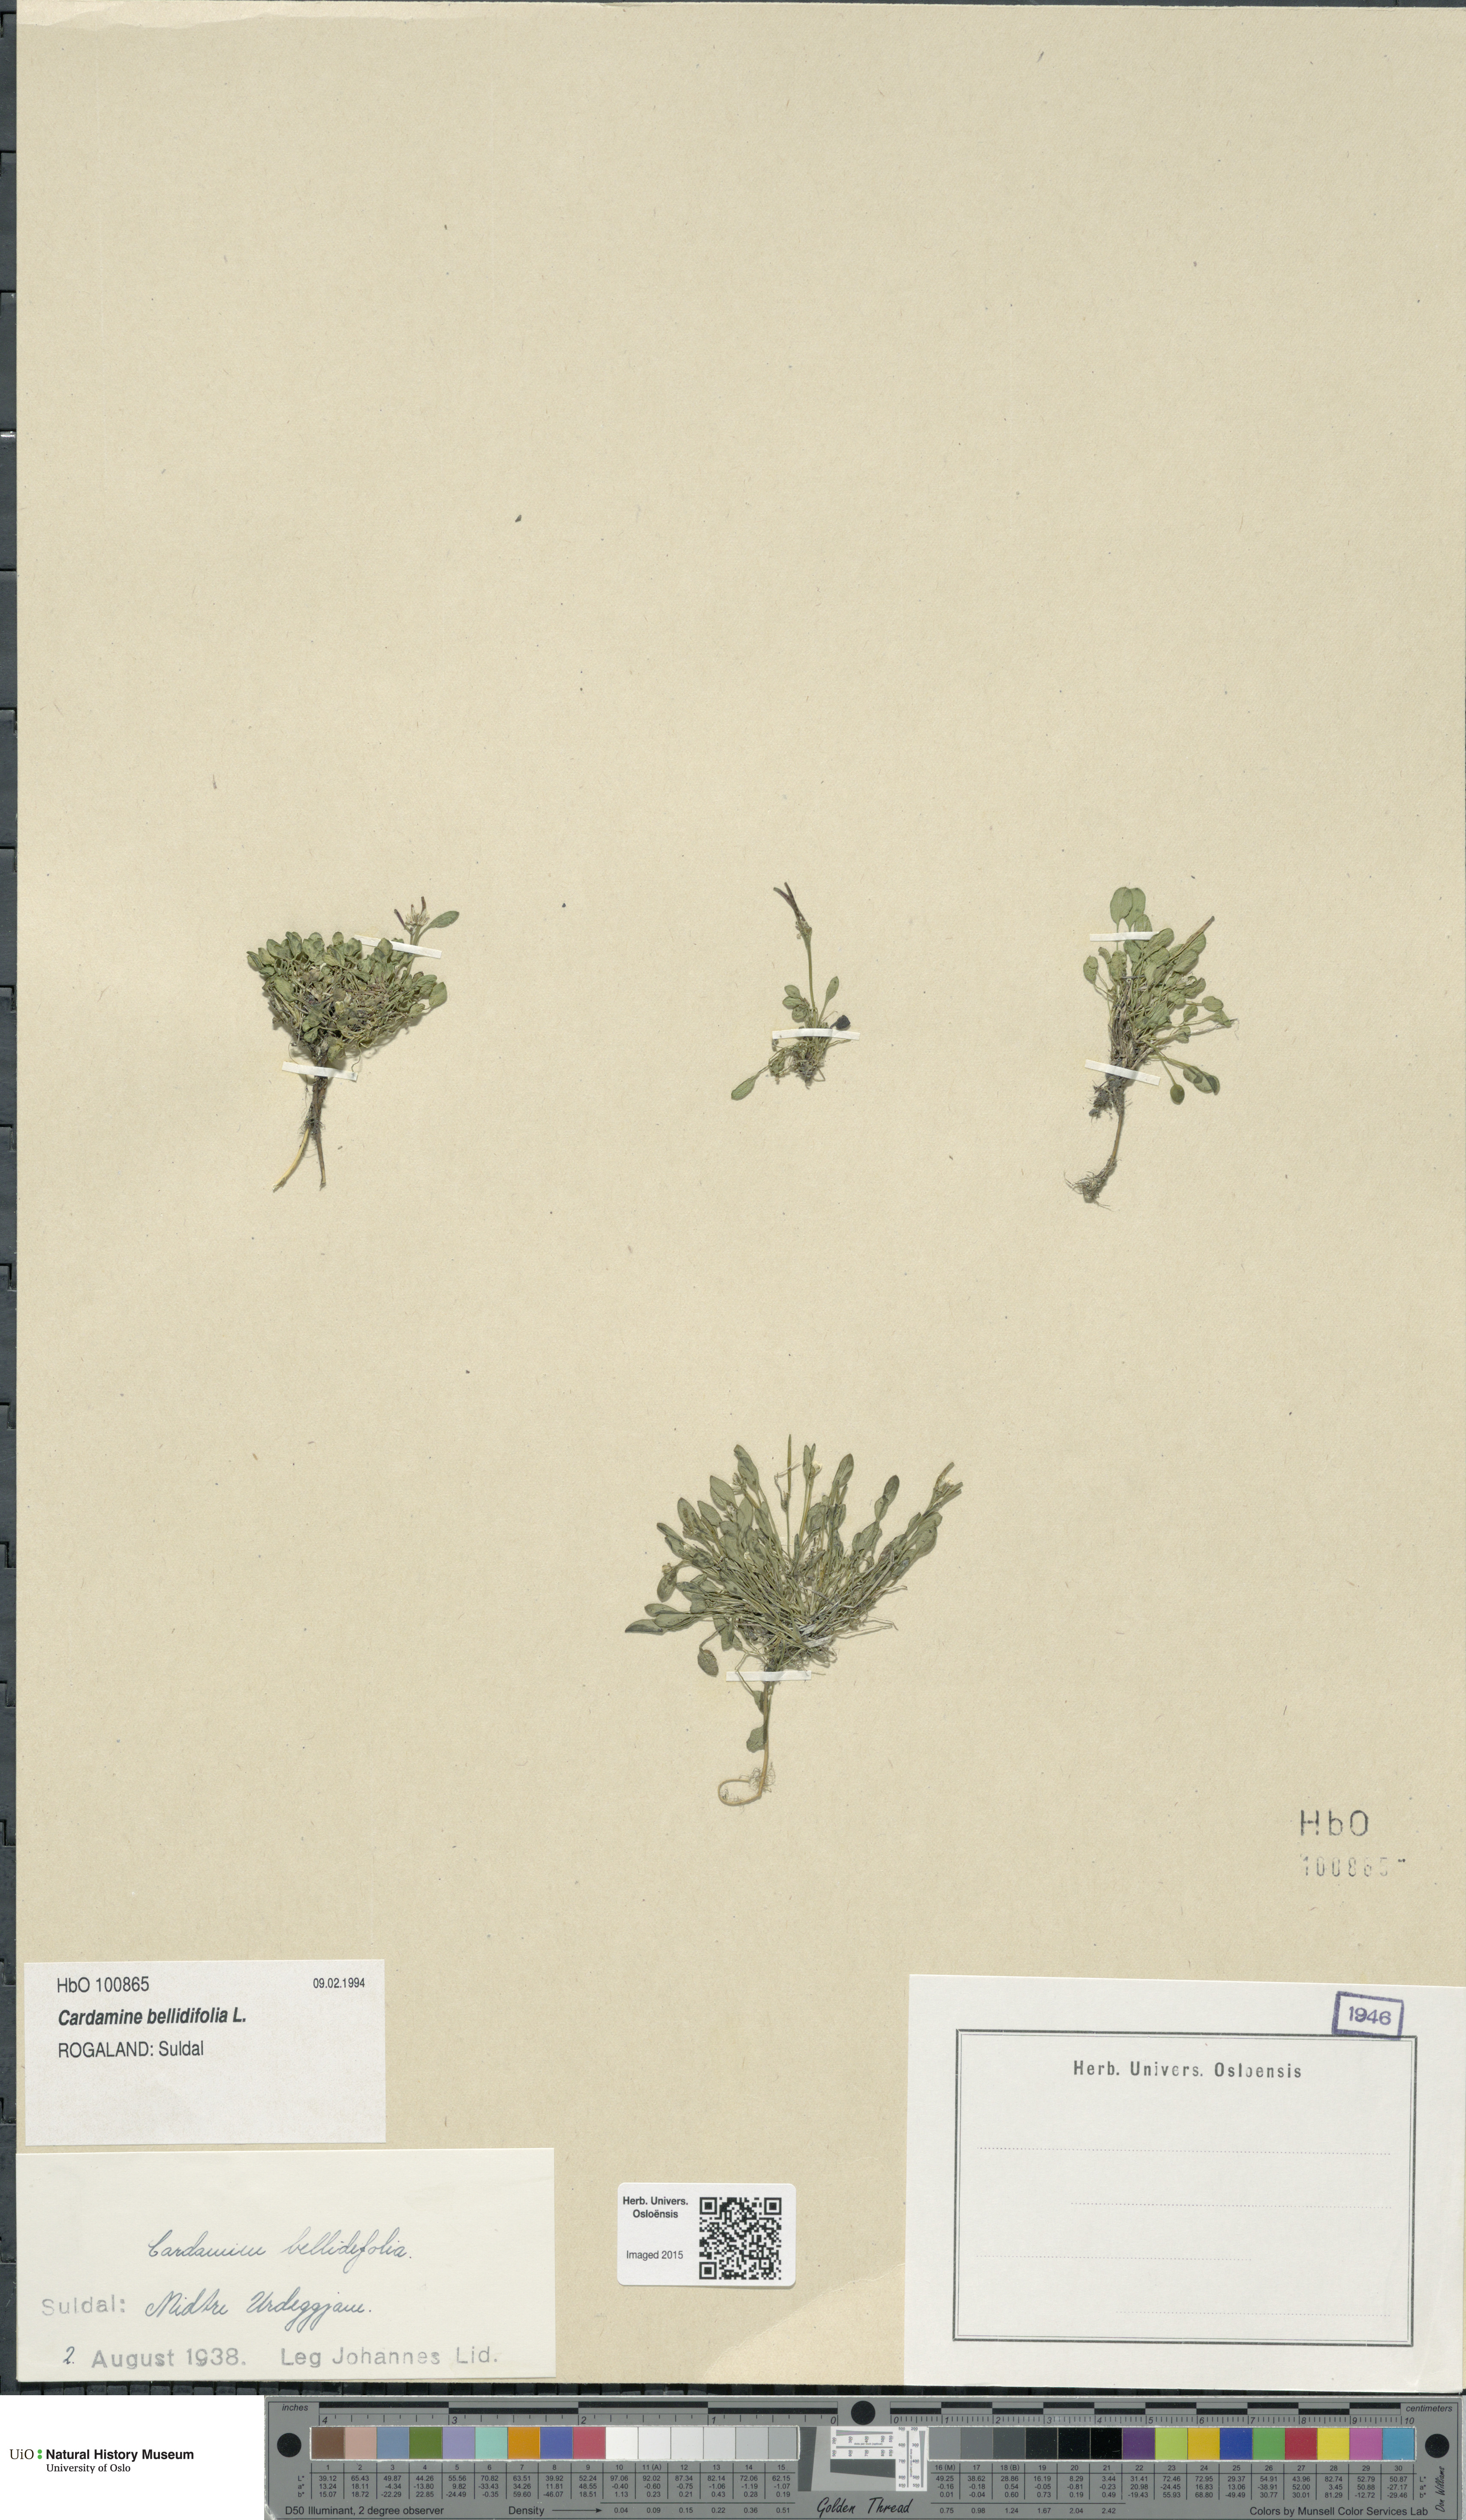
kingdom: Plantae
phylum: Tracheophyta
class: Magnoliopsida
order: Brassicales
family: Brassicaceae
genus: Cardamine
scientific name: Cardamine bellidifolia
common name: Alpine bittercress
